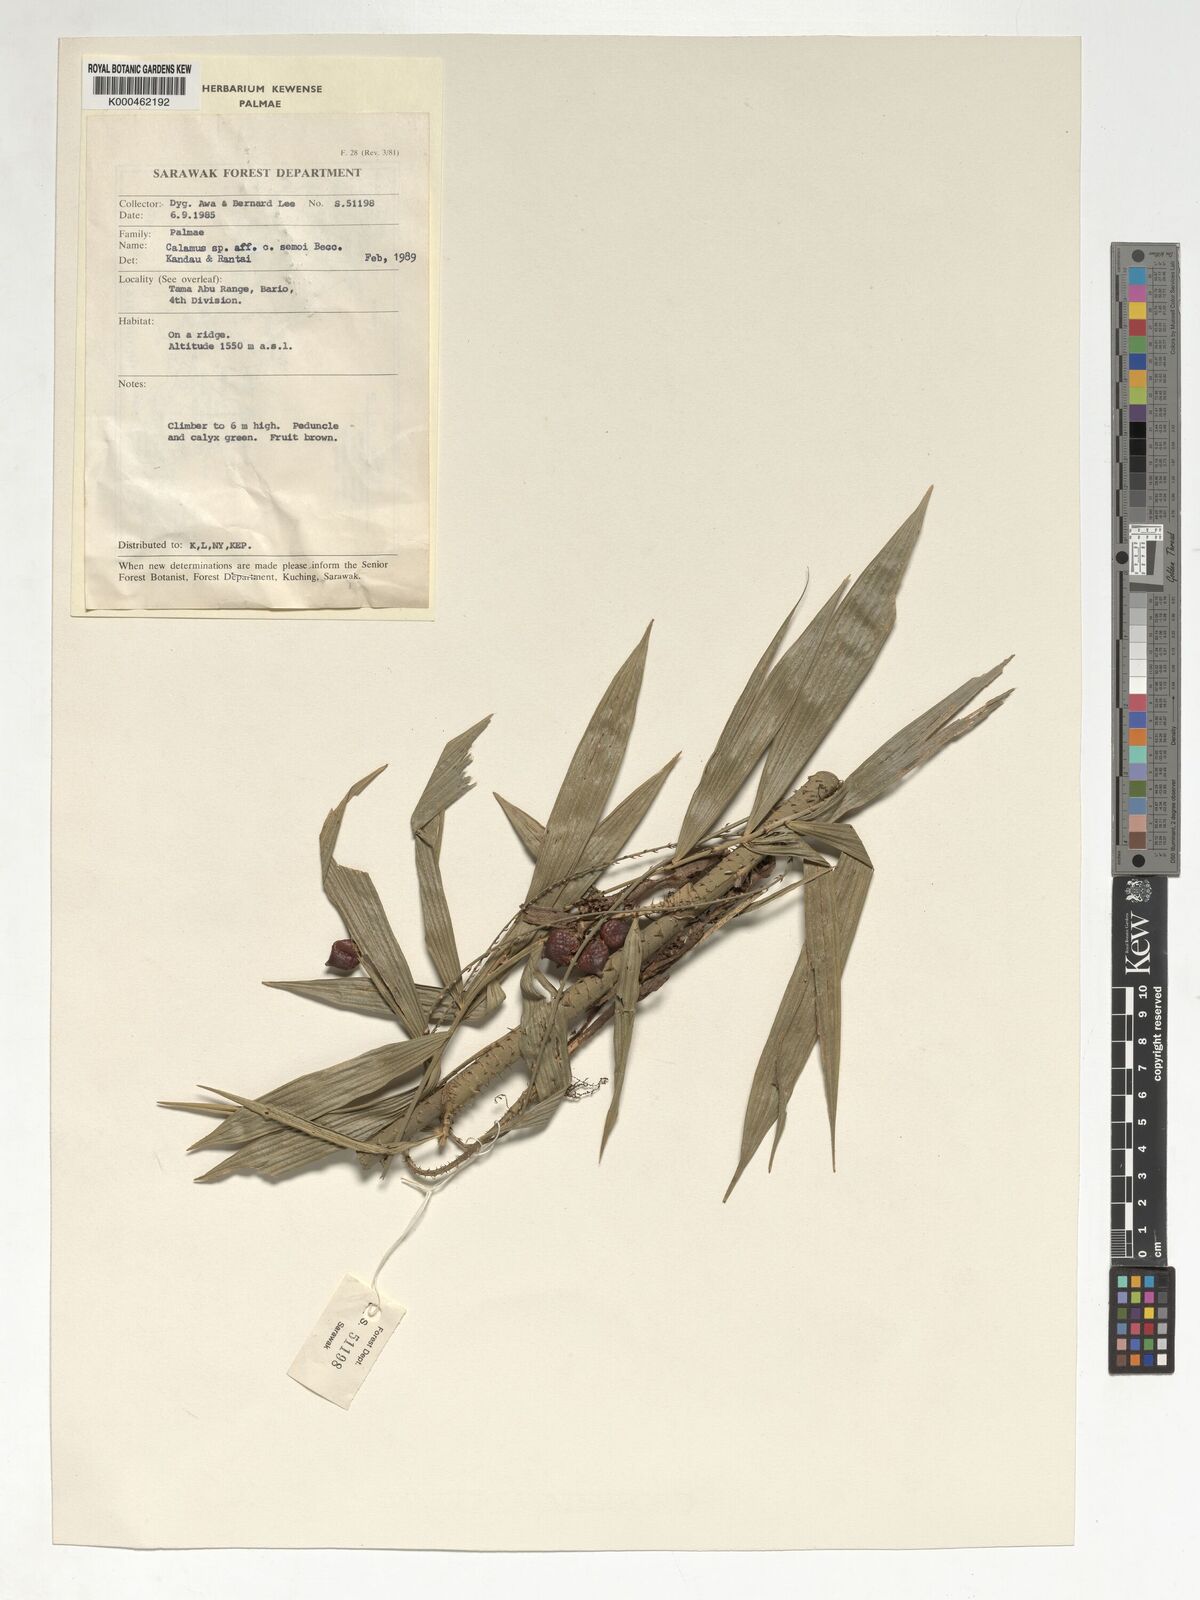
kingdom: Plantae
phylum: Tracheophyta
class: Liliopsida
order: Arecales
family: Arecaceae
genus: Calamus
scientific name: Calamus erioacanthus
